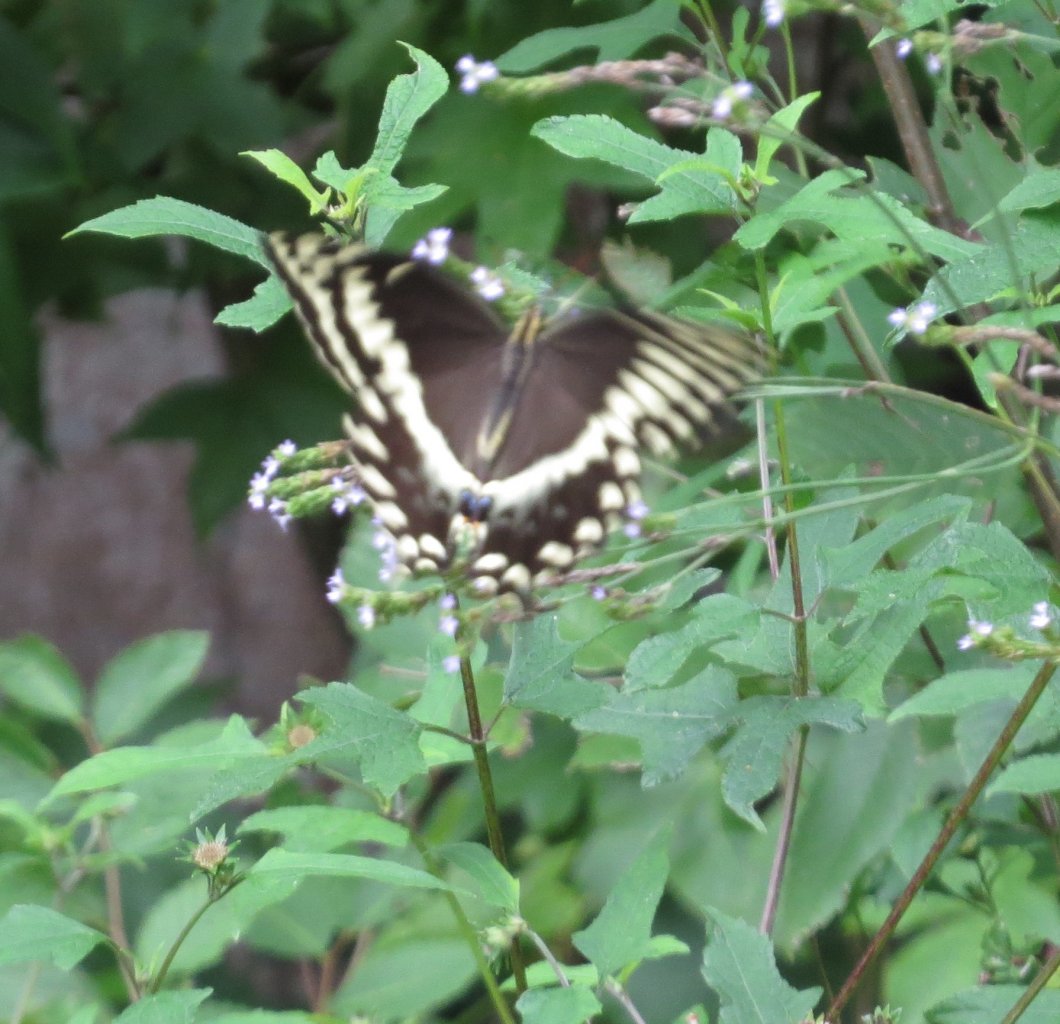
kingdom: Animalia
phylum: Arthropoda
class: Insecta
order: Lepidoptera
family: Papilionidae
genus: Pterourus
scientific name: Pterourus palamedes
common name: Palamedes Swallowtail
